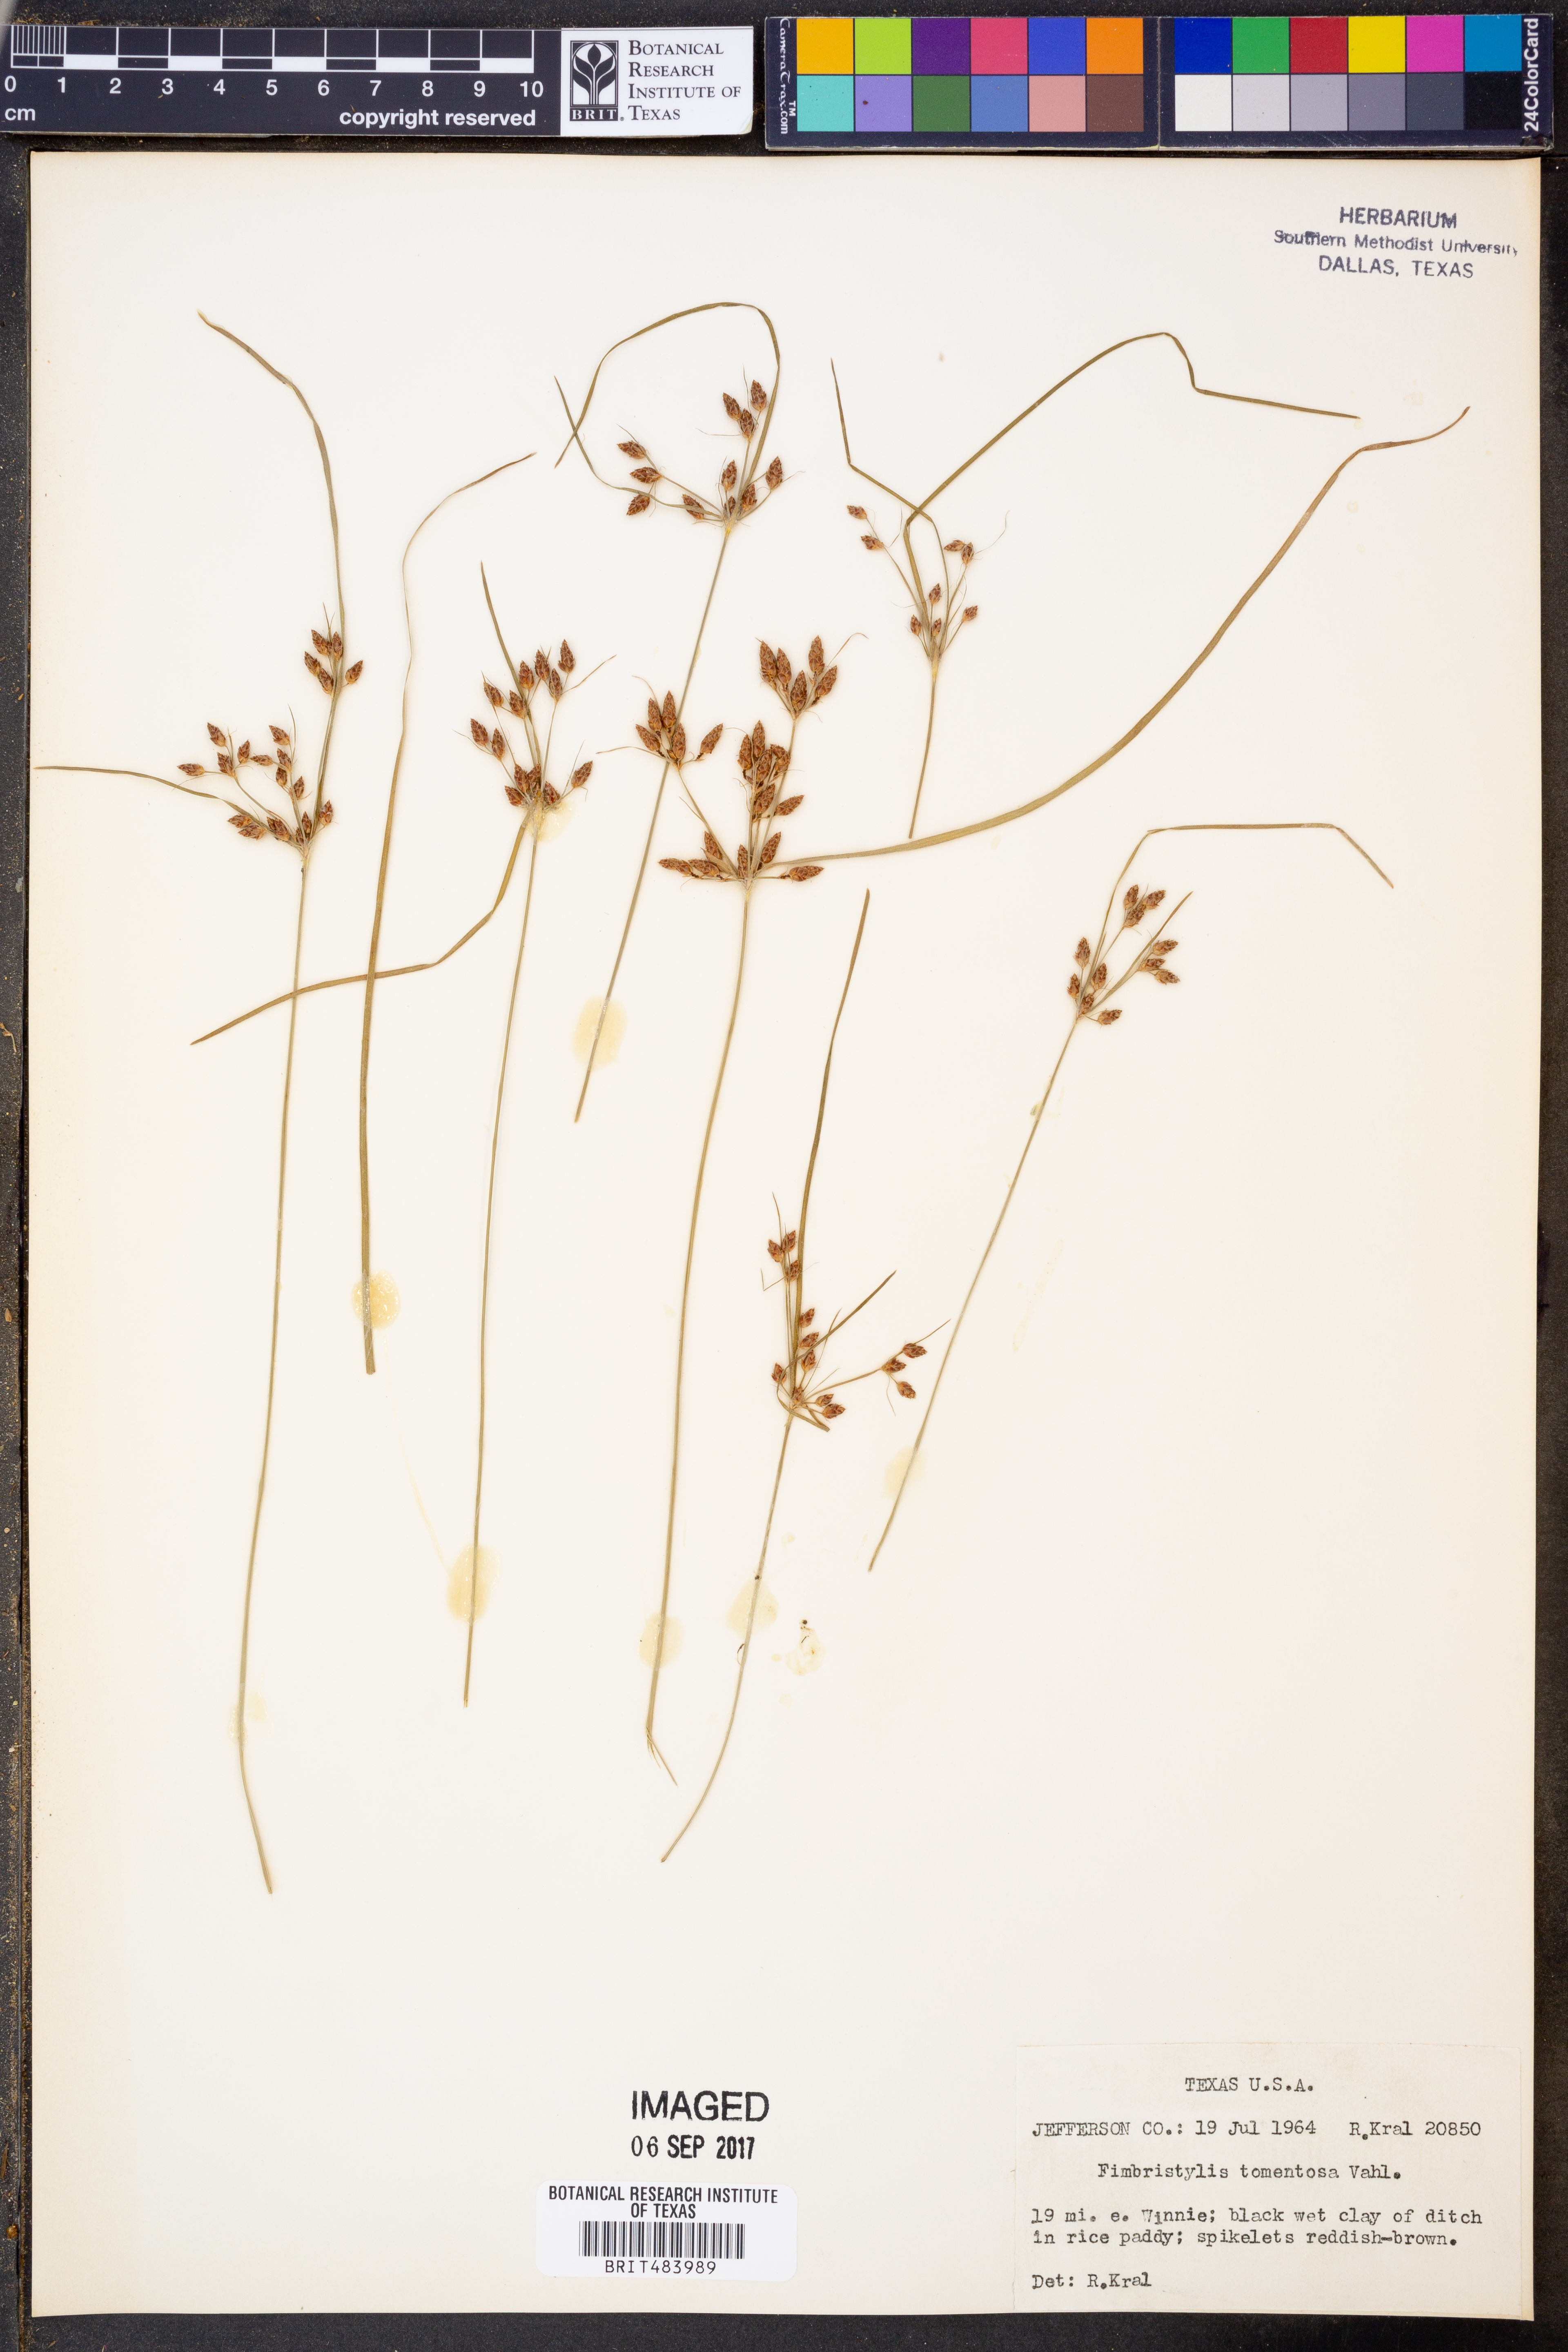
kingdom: Plantae
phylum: Tracheophyta
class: Liliopsida
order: Poales
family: Cyperaceae
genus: Fimbristylis
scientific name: Fimbristylis dichotoma
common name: Forked fimbry
